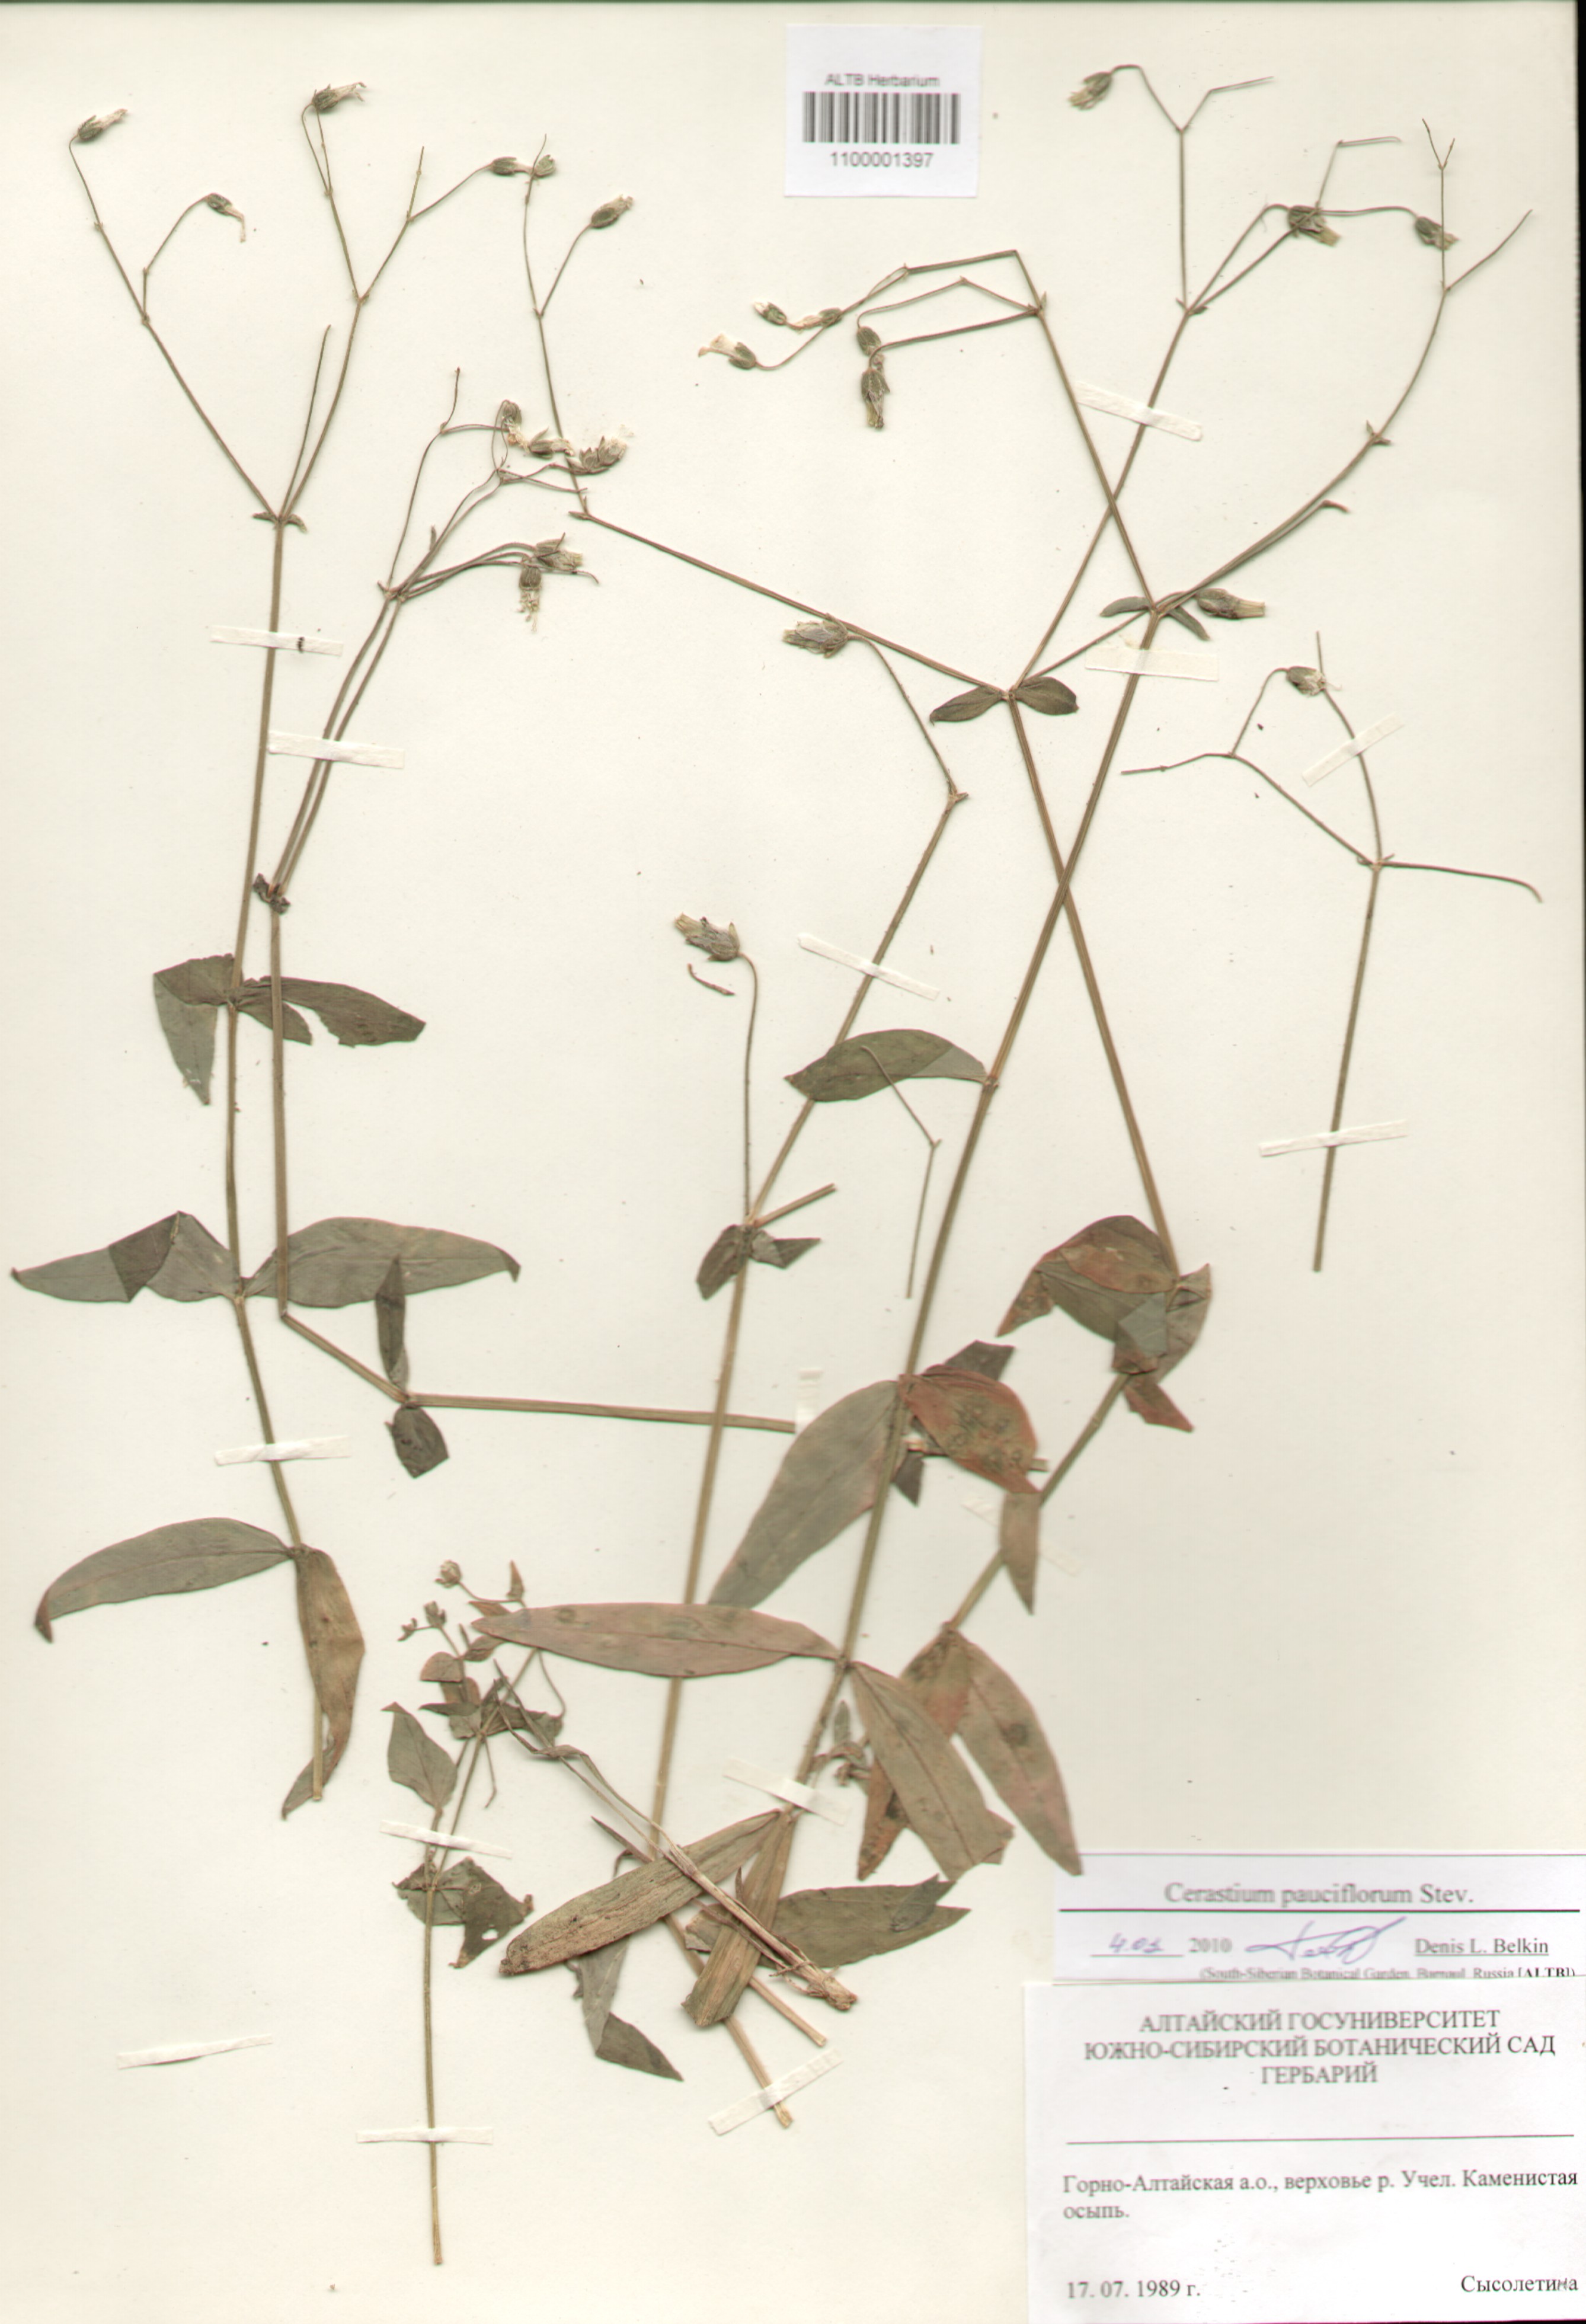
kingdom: Plantae
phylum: Tracheophyta
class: Magnoliopsida
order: Caryophyllales
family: Caryophyllaceae
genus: Cerastium
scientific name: Cerastium pauciflorum
